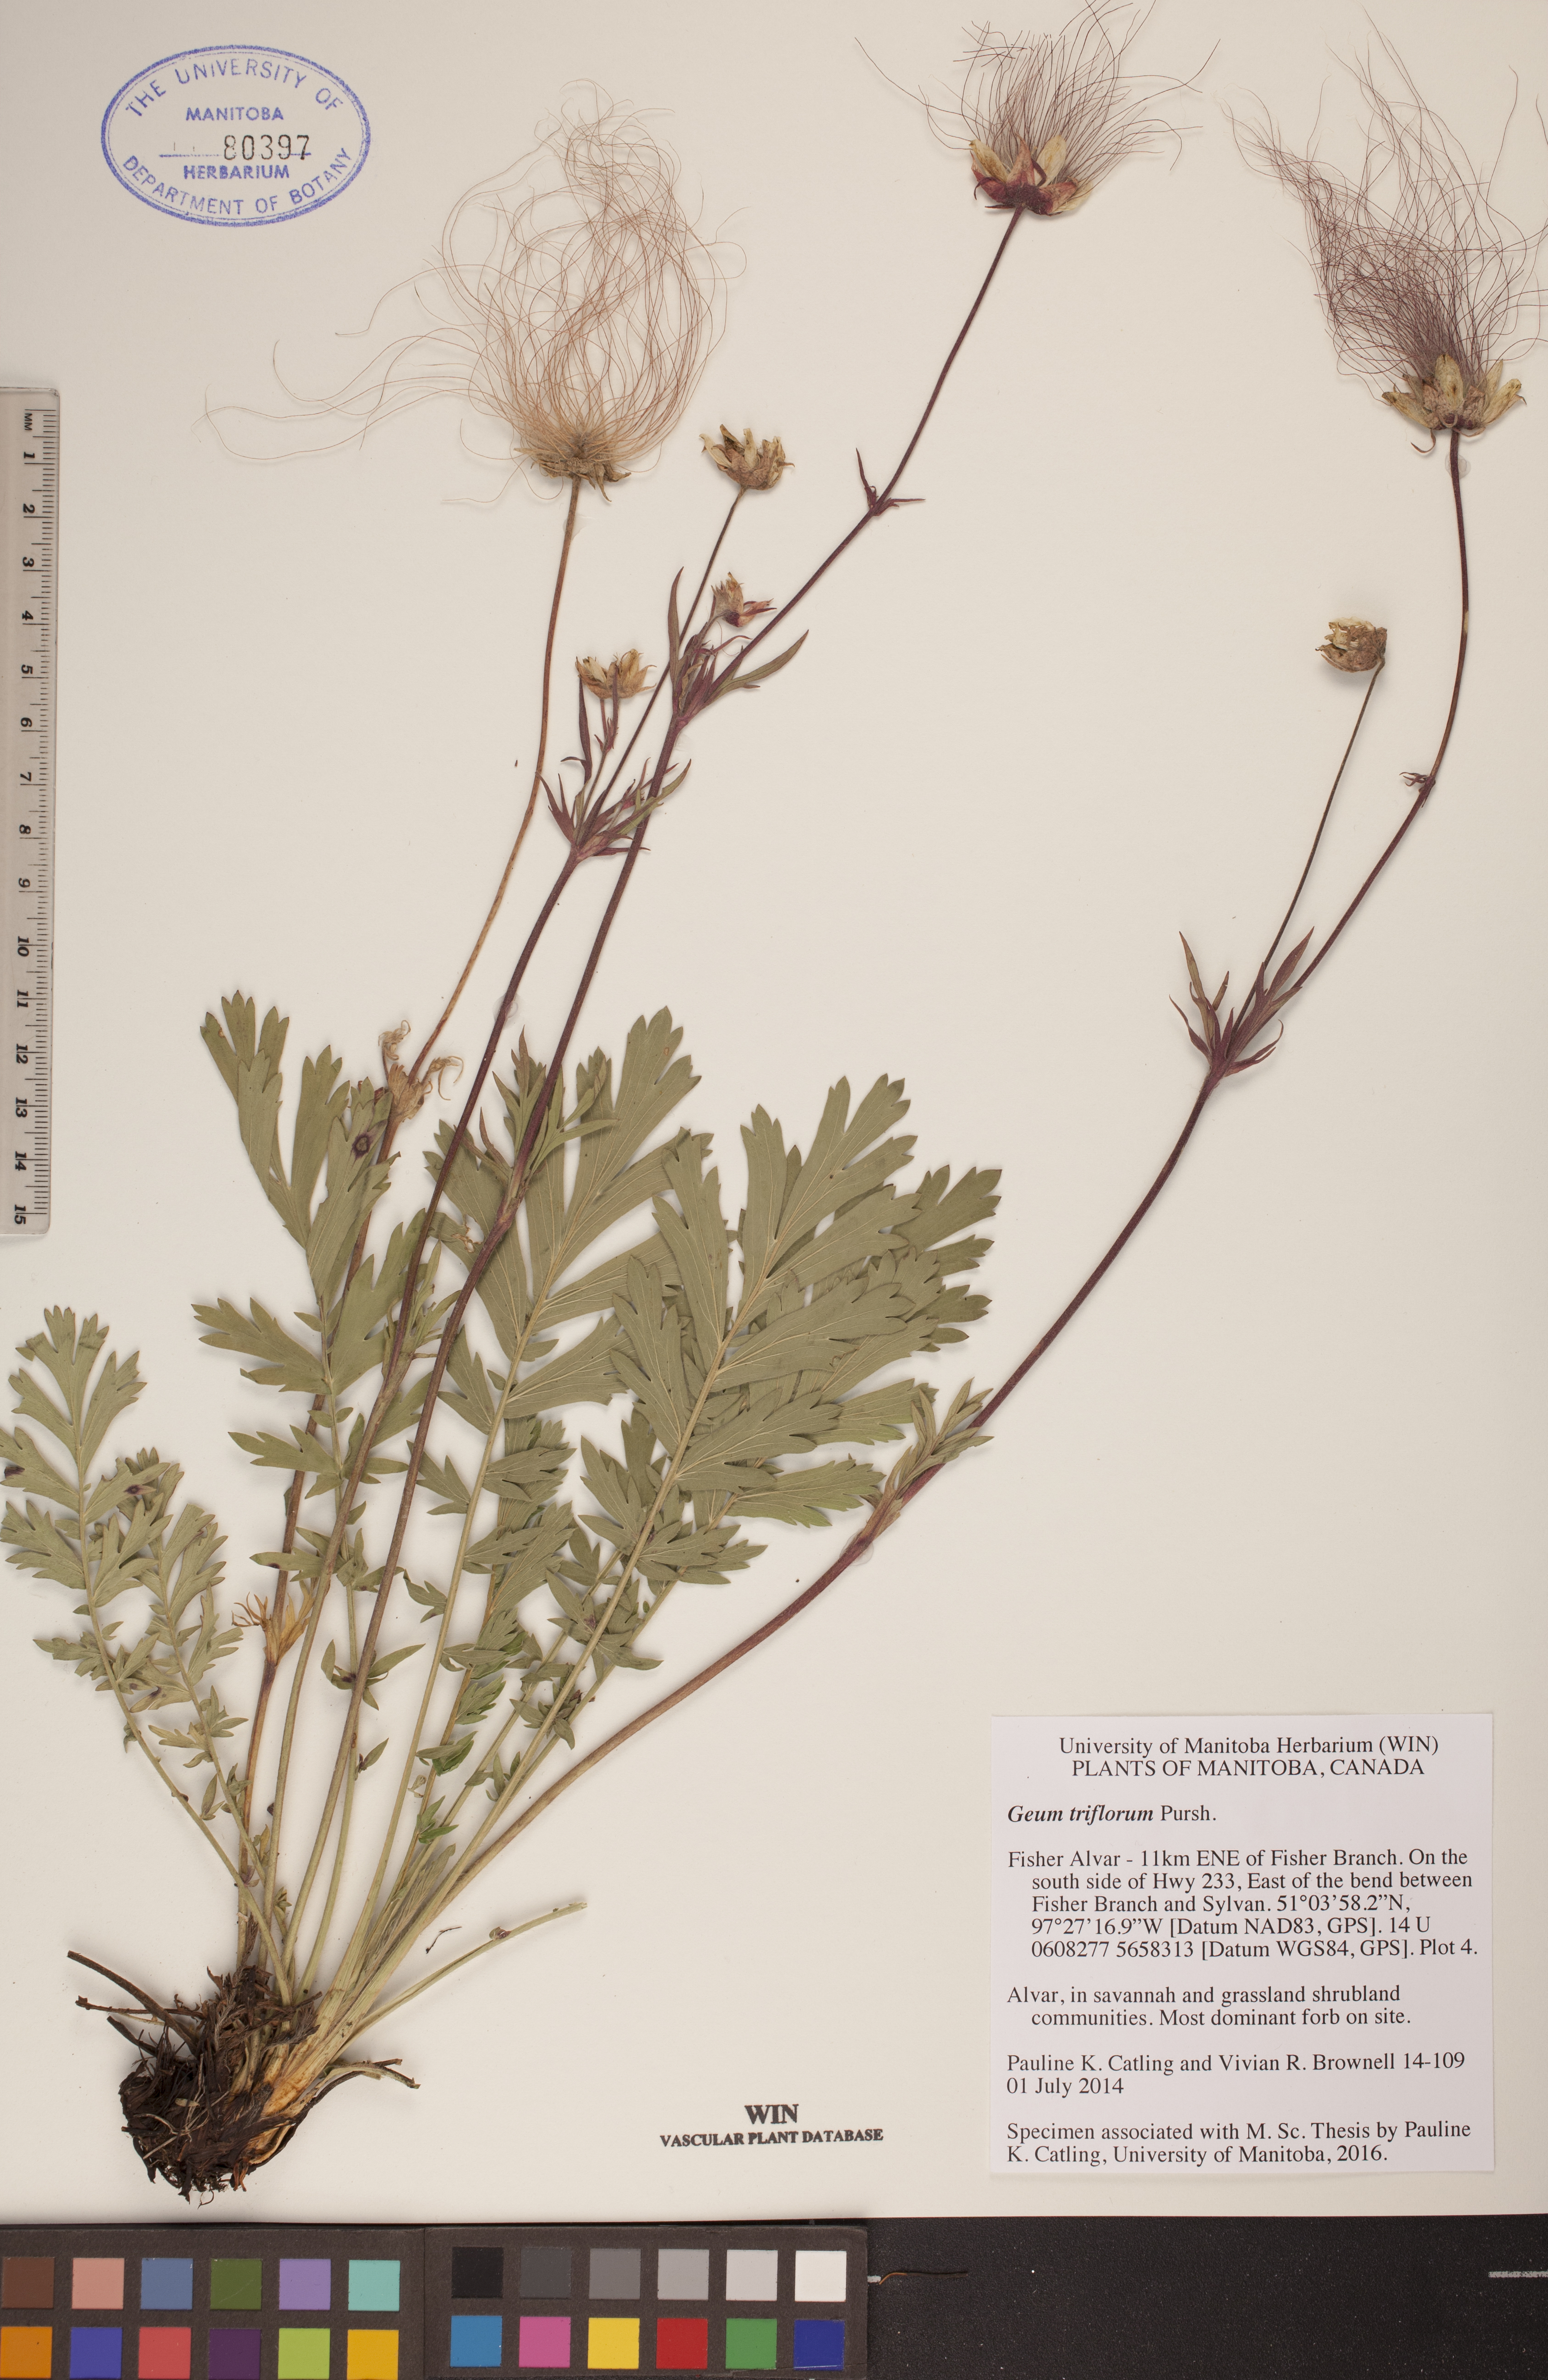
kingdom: Plantae
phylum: Tracheophyta
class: Magnoliopsida
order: Rosales
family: Rosaceae
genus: Geum
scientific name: Geum triflorum
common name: Old man's whiskers
